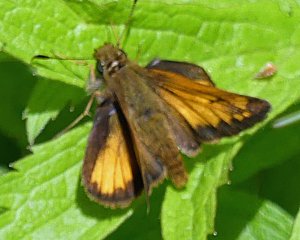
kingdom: Animalia
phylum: Arthropoda
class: Insecta
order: Lepidoptera
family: Hesperiidae
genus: Lon
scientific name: Lon hobomok
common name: Hobomok Skipper
